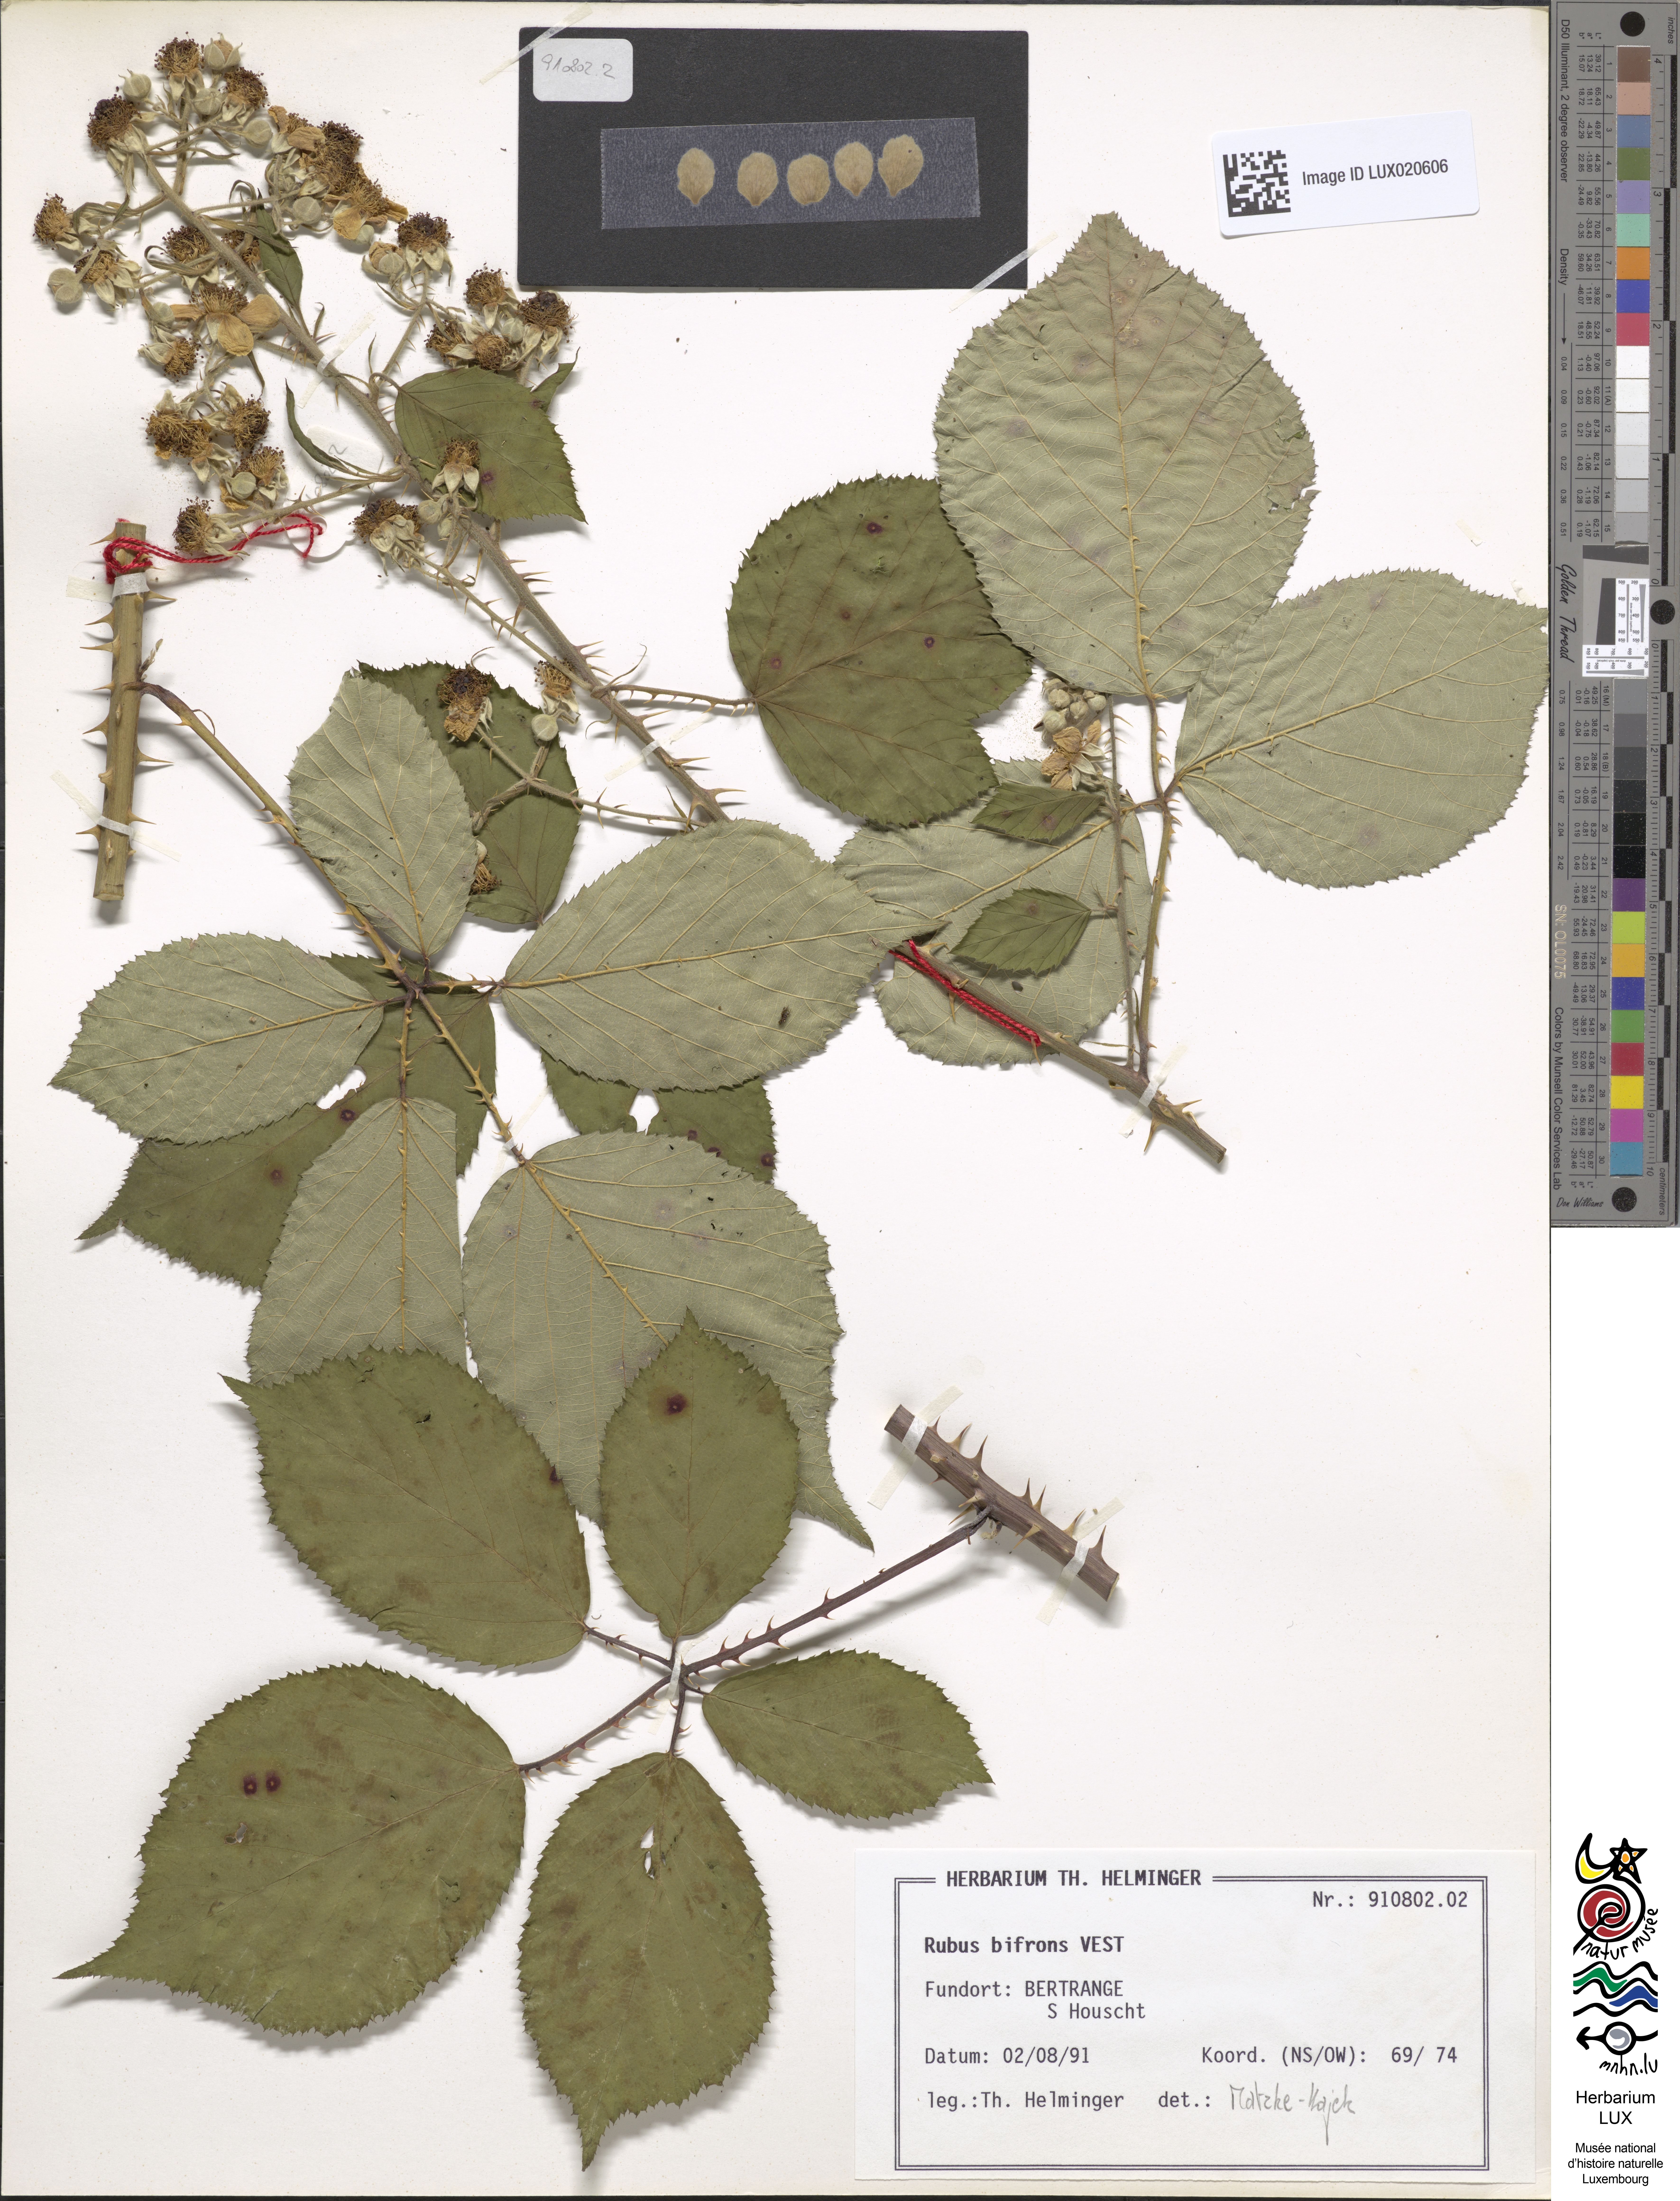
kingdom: Plantae
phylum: Tracheophyta
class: Magnoliopsida
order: Rosales
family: Rosaceae
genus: Rubus
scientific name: Rubus bifrons
